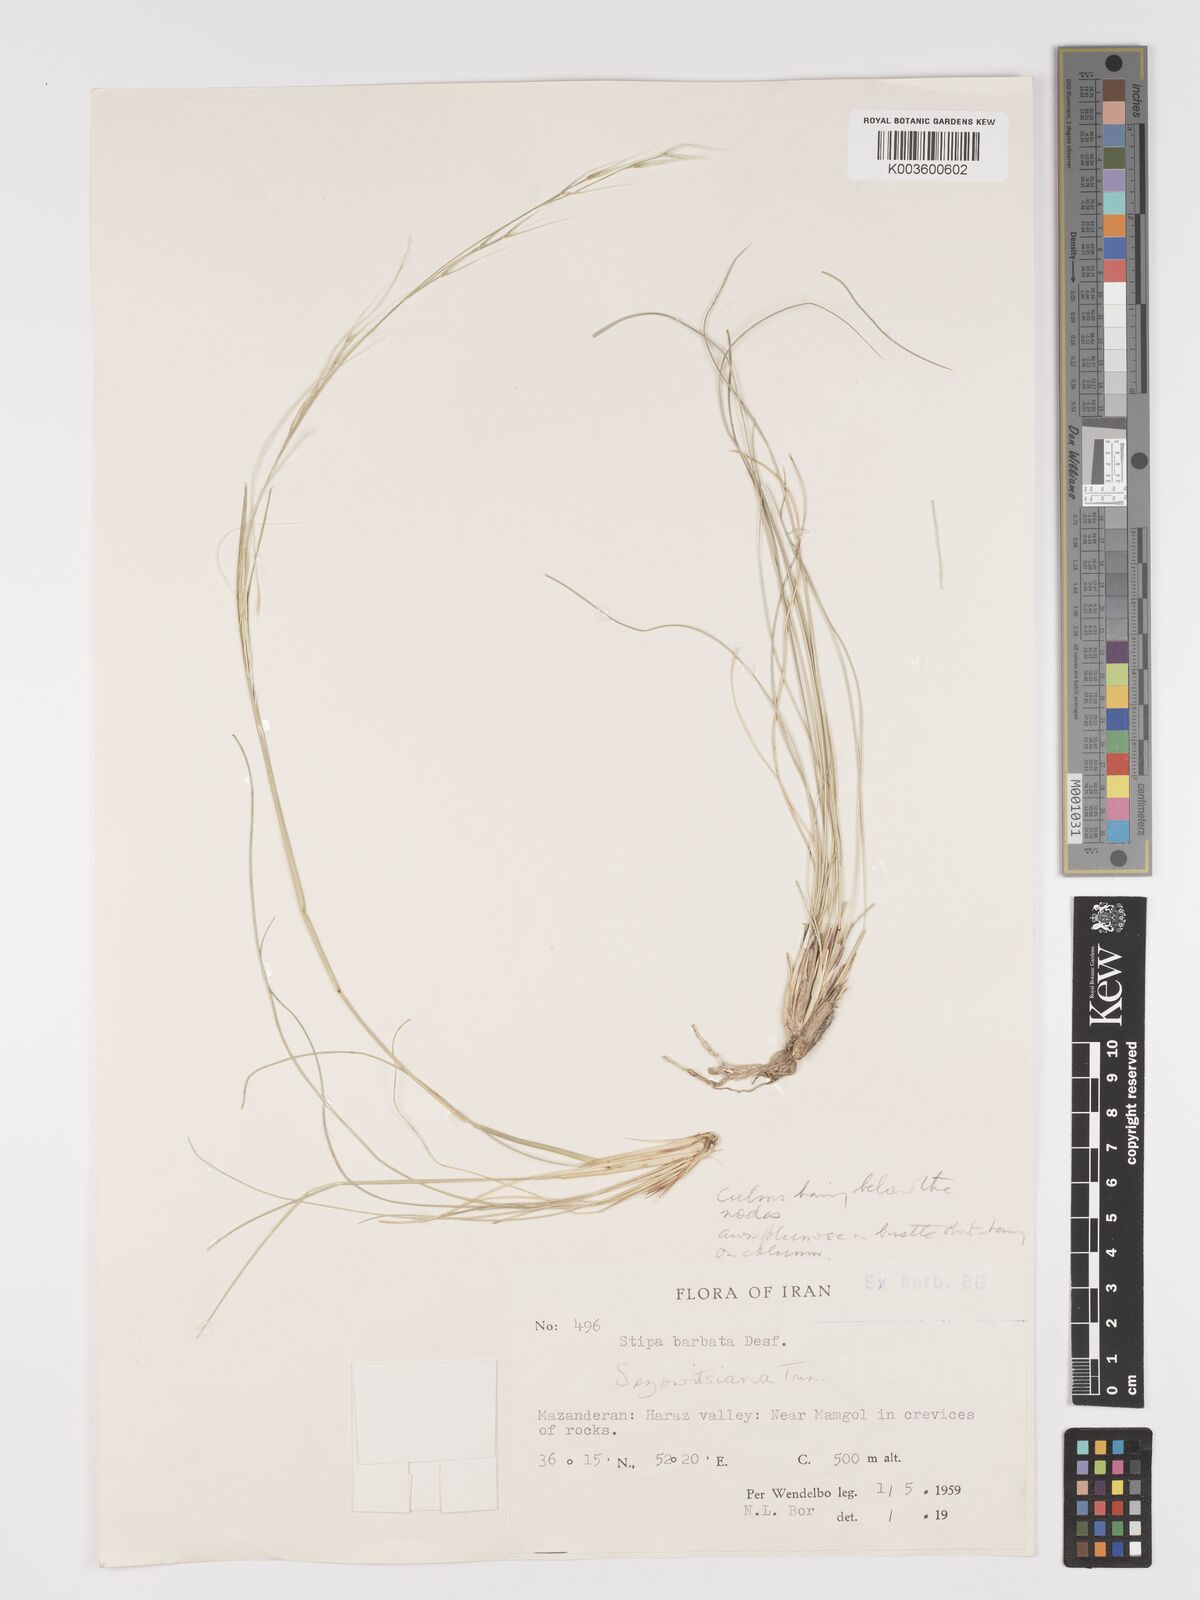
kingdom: Plantae
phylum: Tracheophyta
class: Liliopsida
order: Poales
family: Poaceae
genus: Stipa
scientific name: Stipa barbata
